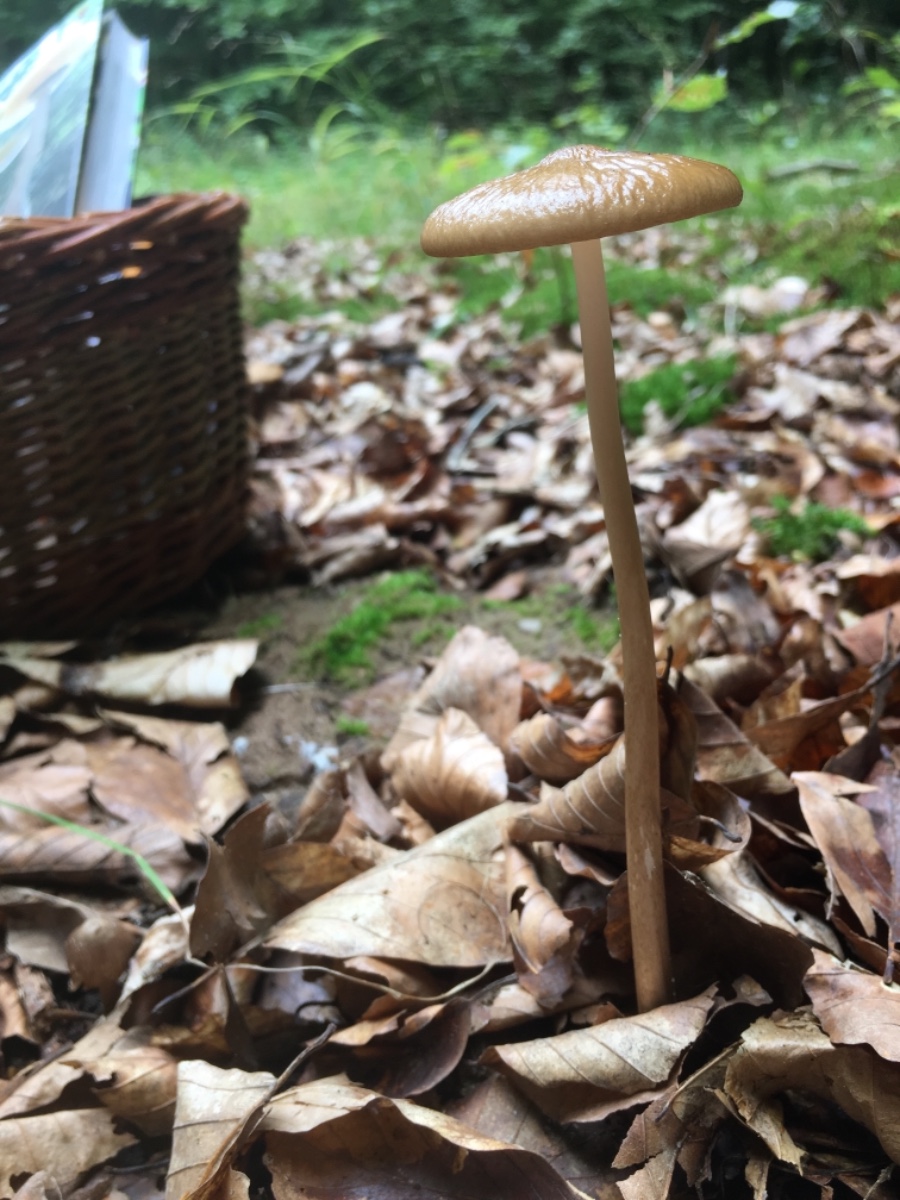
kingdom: Fungi
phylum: Basidiomycota
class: Agaricomycetes
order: Agaricales
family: Physalacriaceae
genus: Hymenopellis
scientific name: Hymenopellis radicata
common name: almindelig pælerodshat
